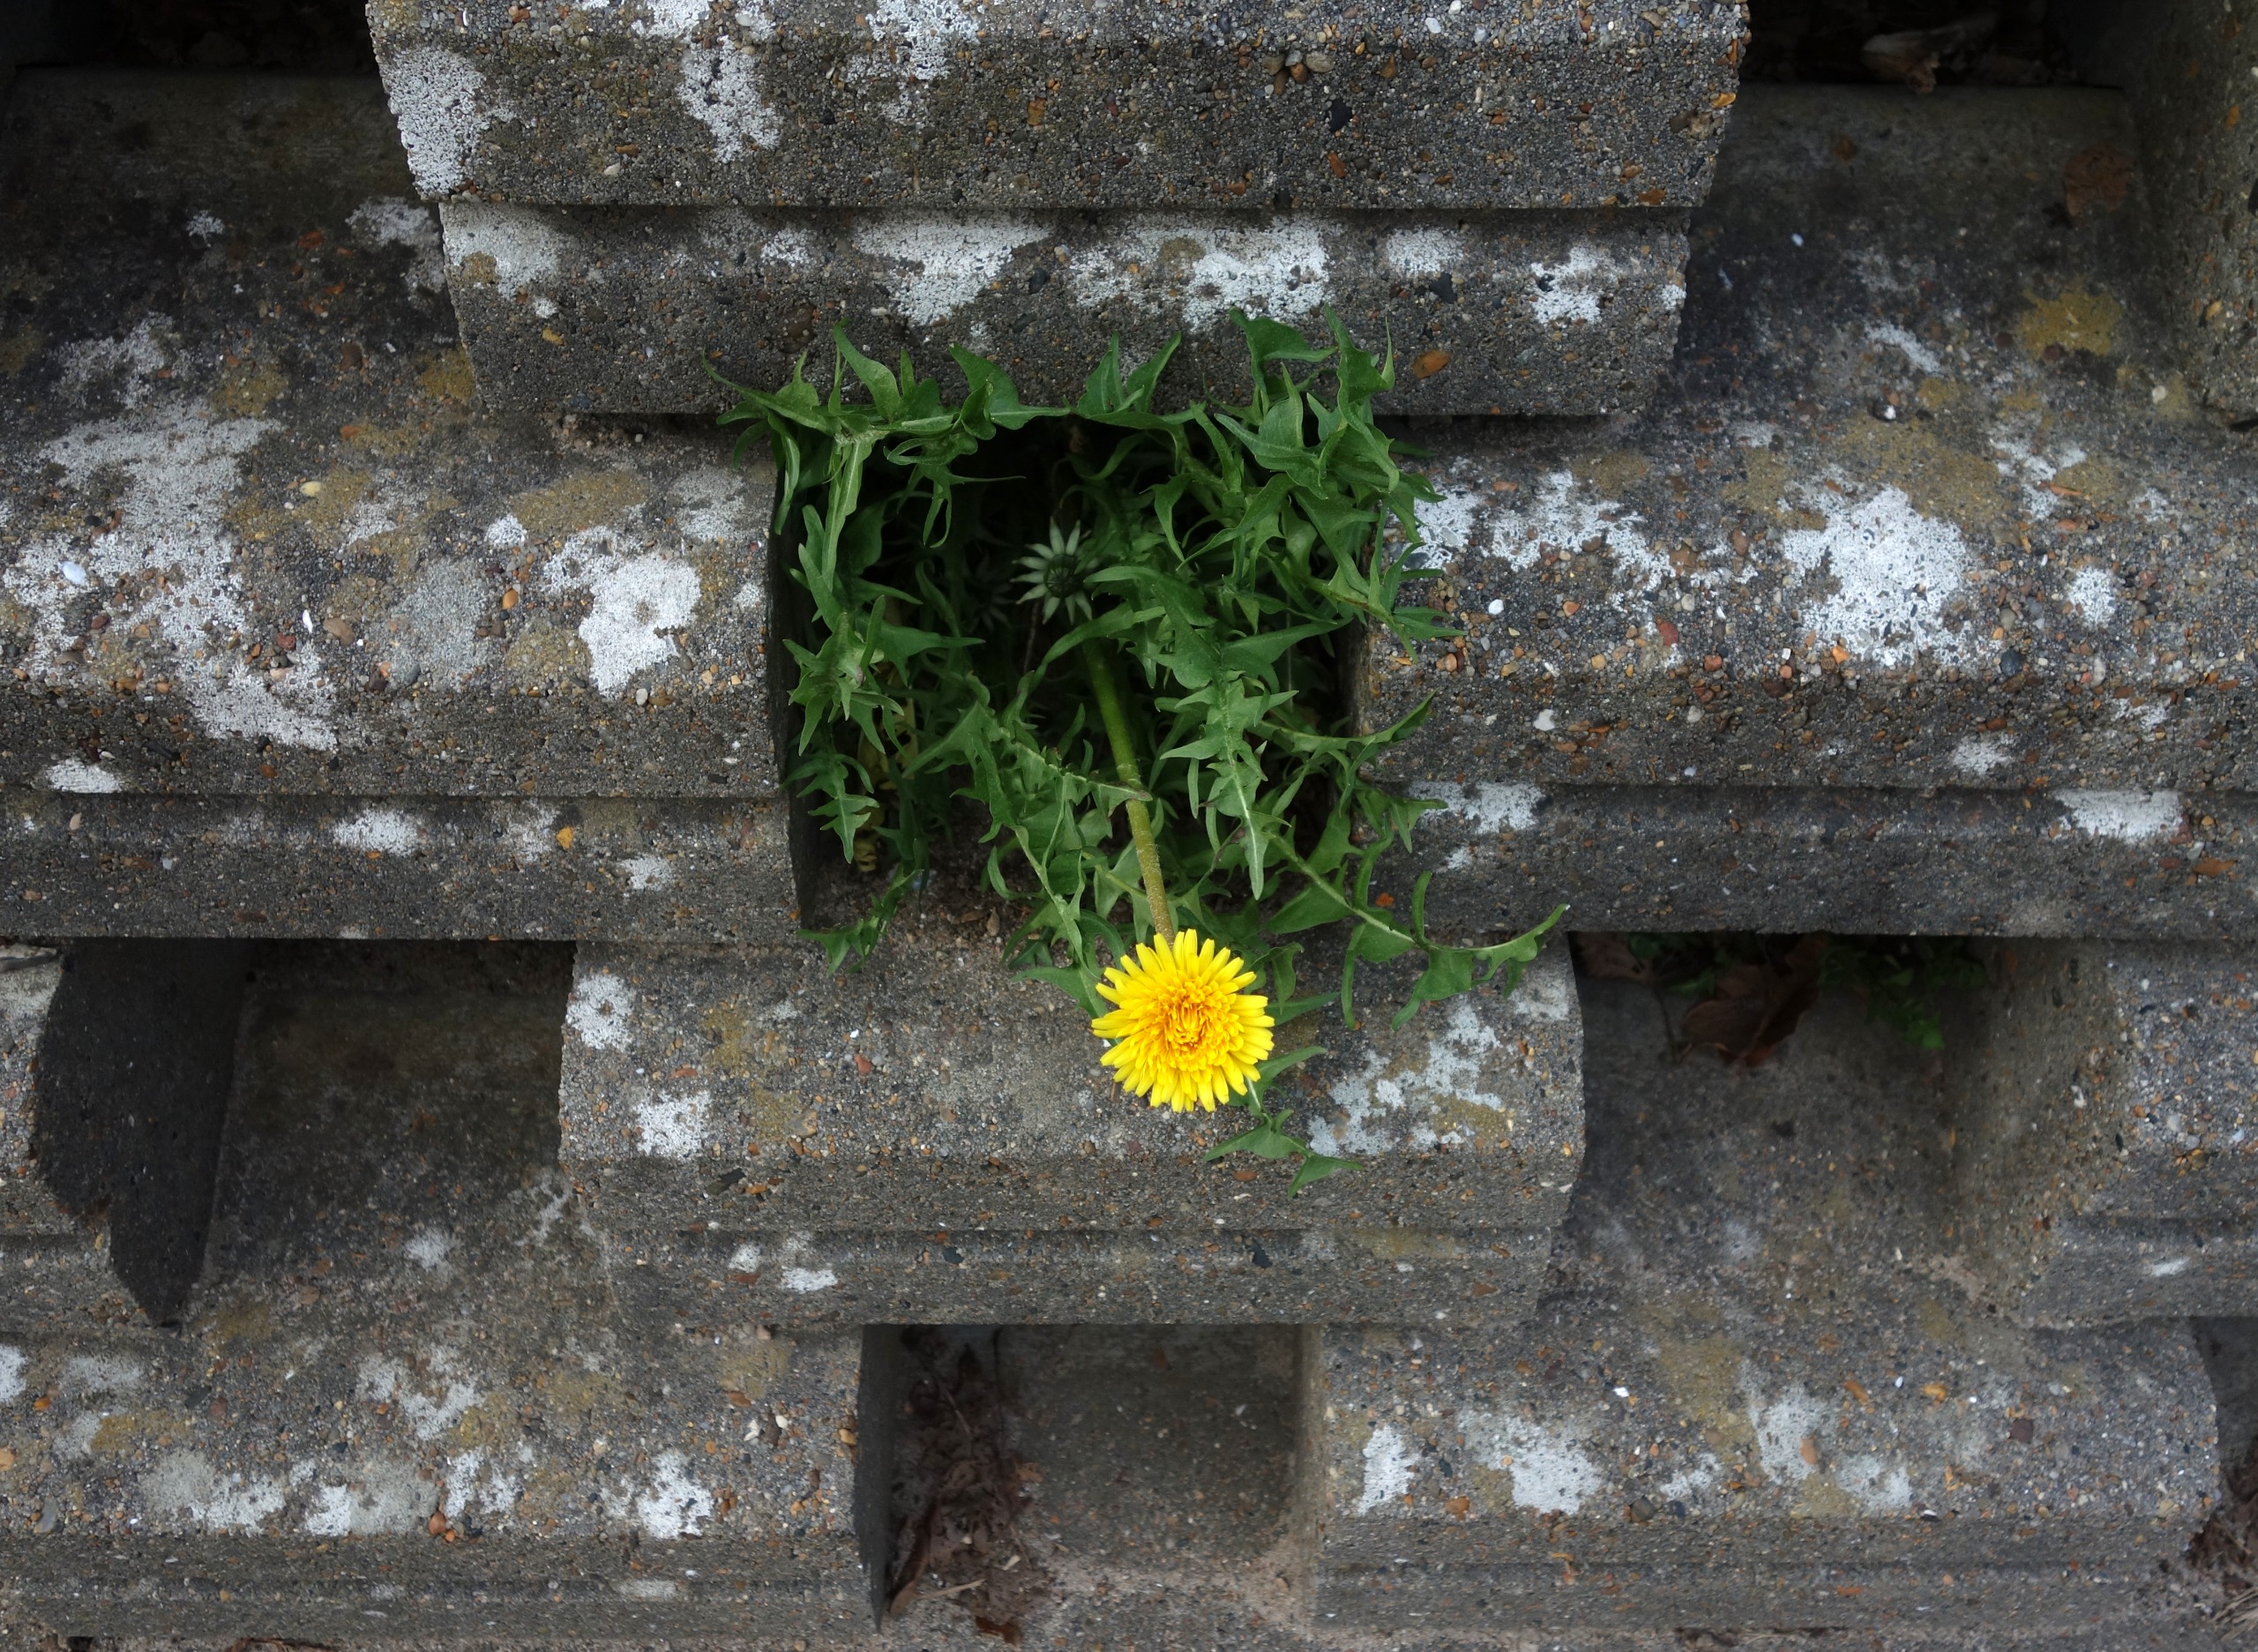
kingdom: Plantae
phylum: Tracheophyta
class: Magnoliopsida
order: Asterales
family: Asteraceae
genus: Taraxacum
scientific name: Taraxacum
